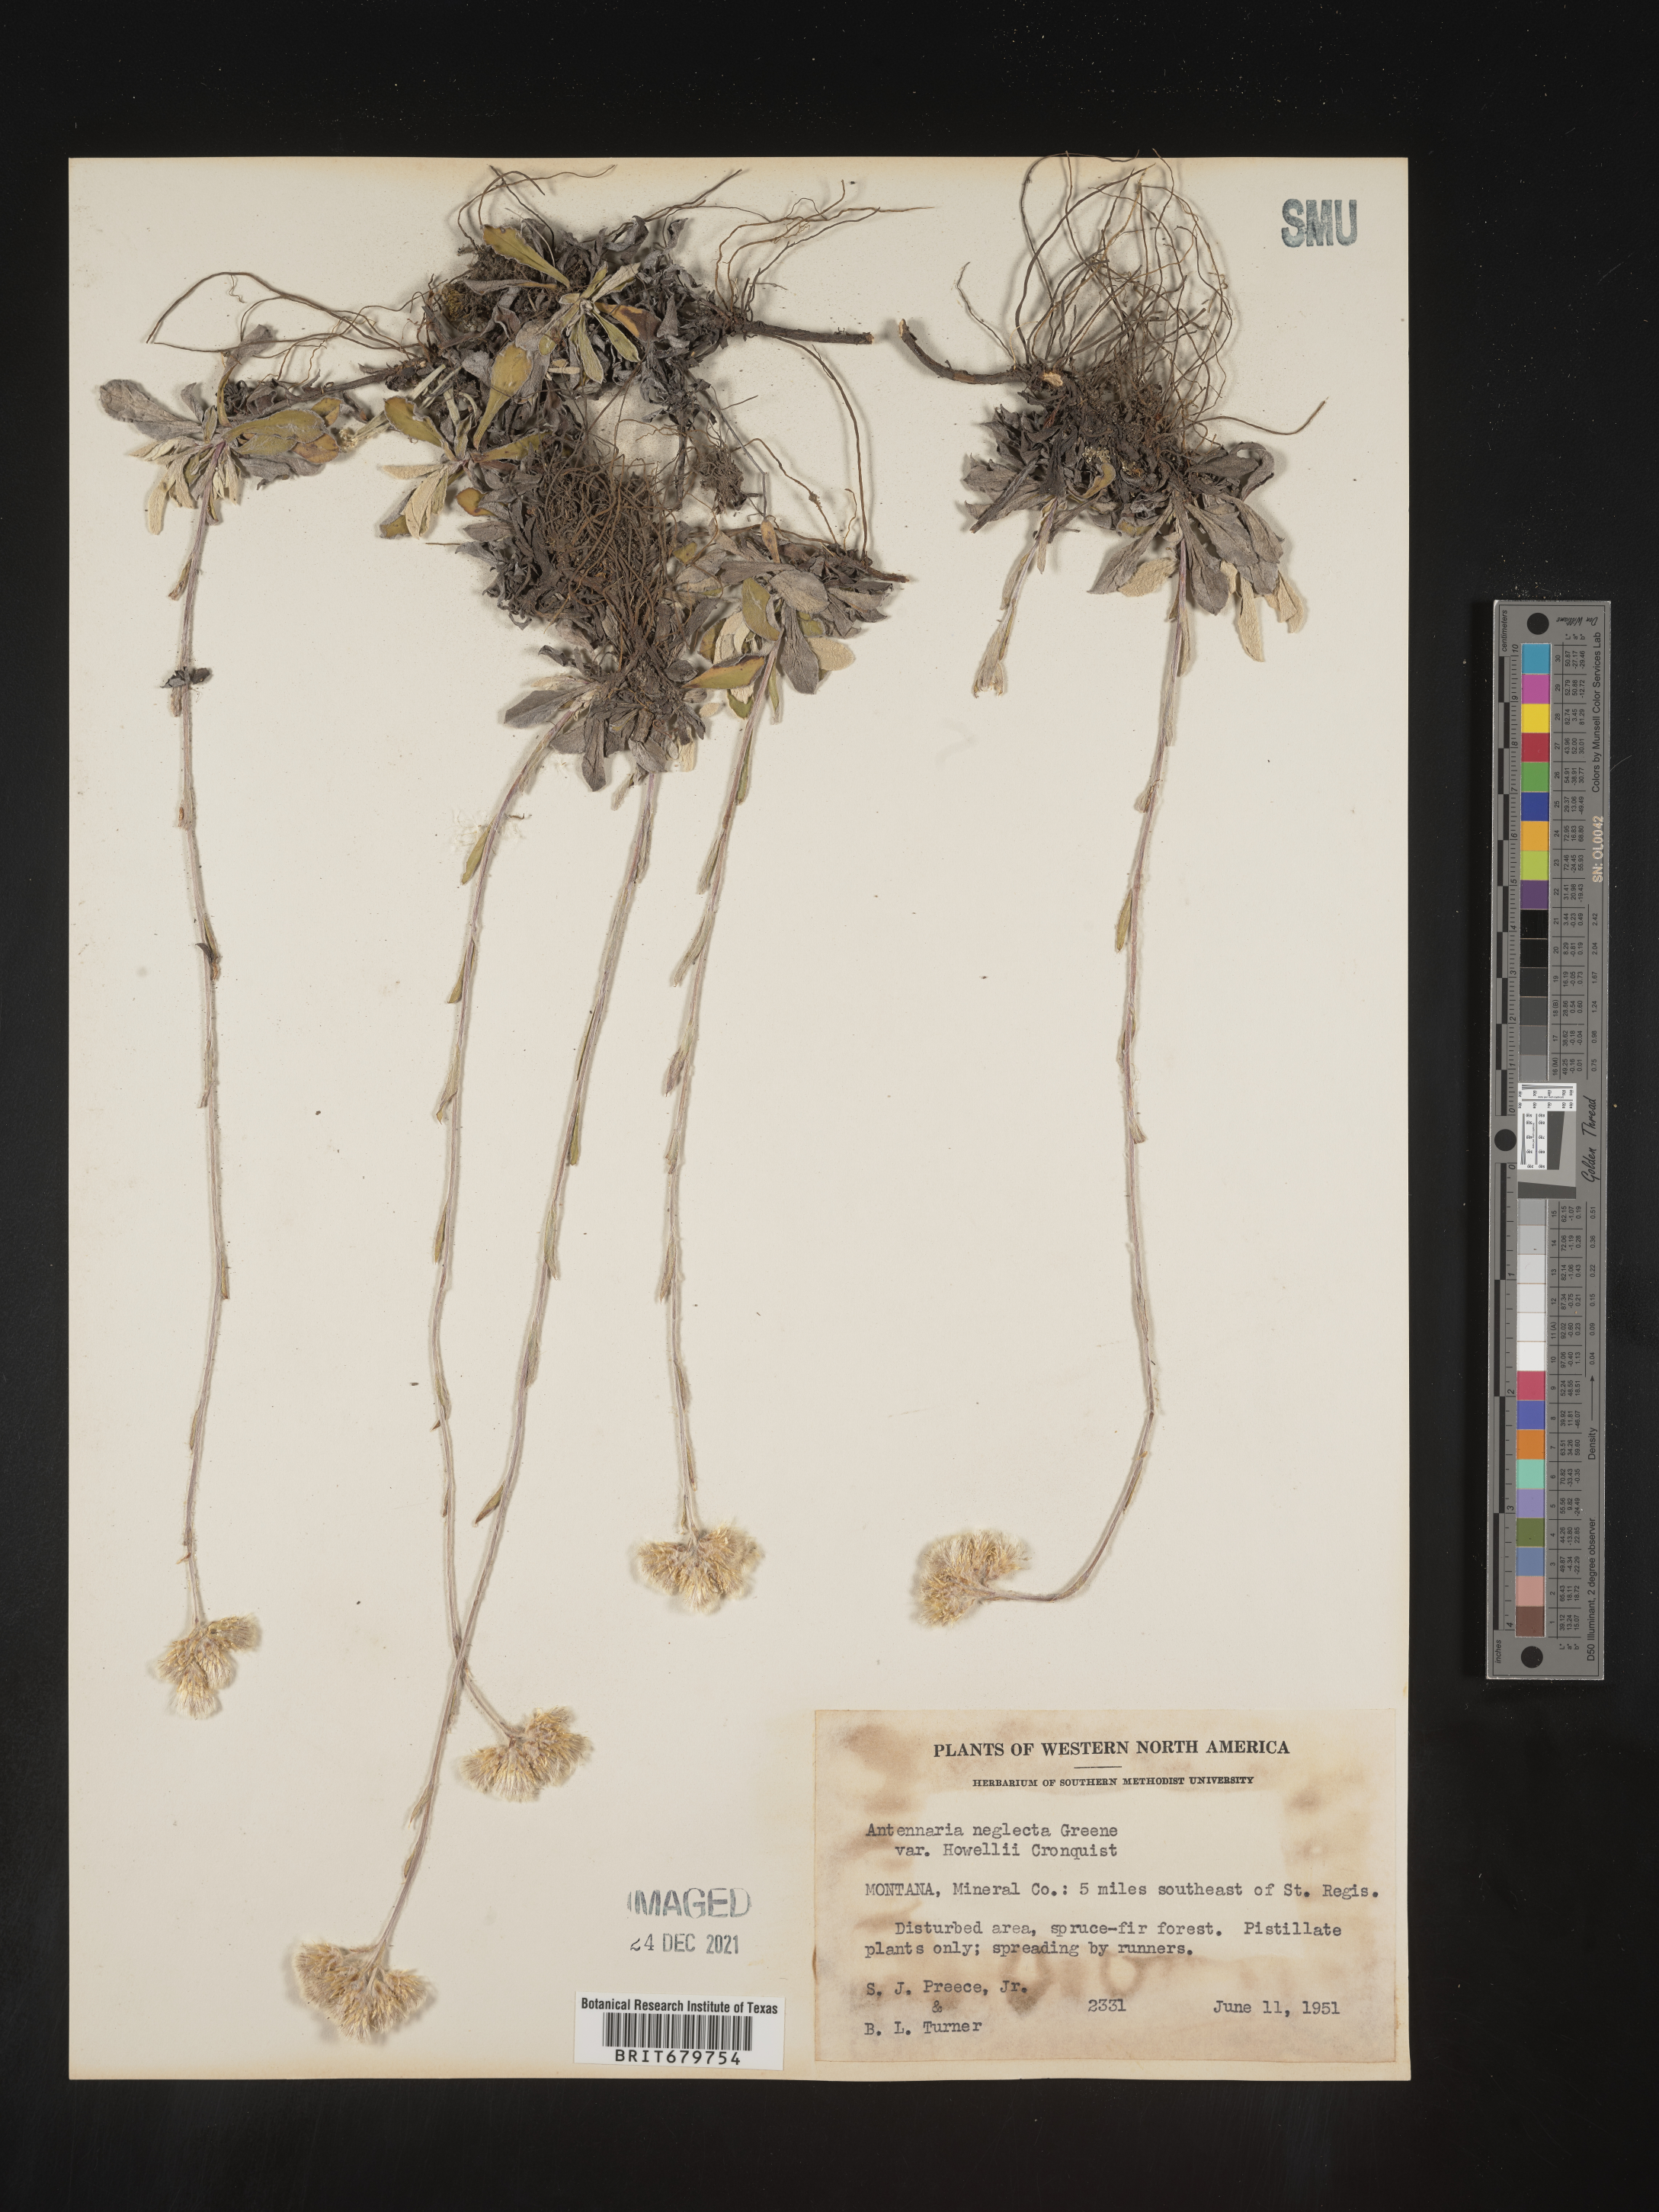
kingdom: Plantae
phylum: Tracheophyta
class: Magnoliopsida
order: Asterales
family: Asteraceae
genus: Antennaria
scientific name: Antennaria neglecta
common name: Field pussytoes
